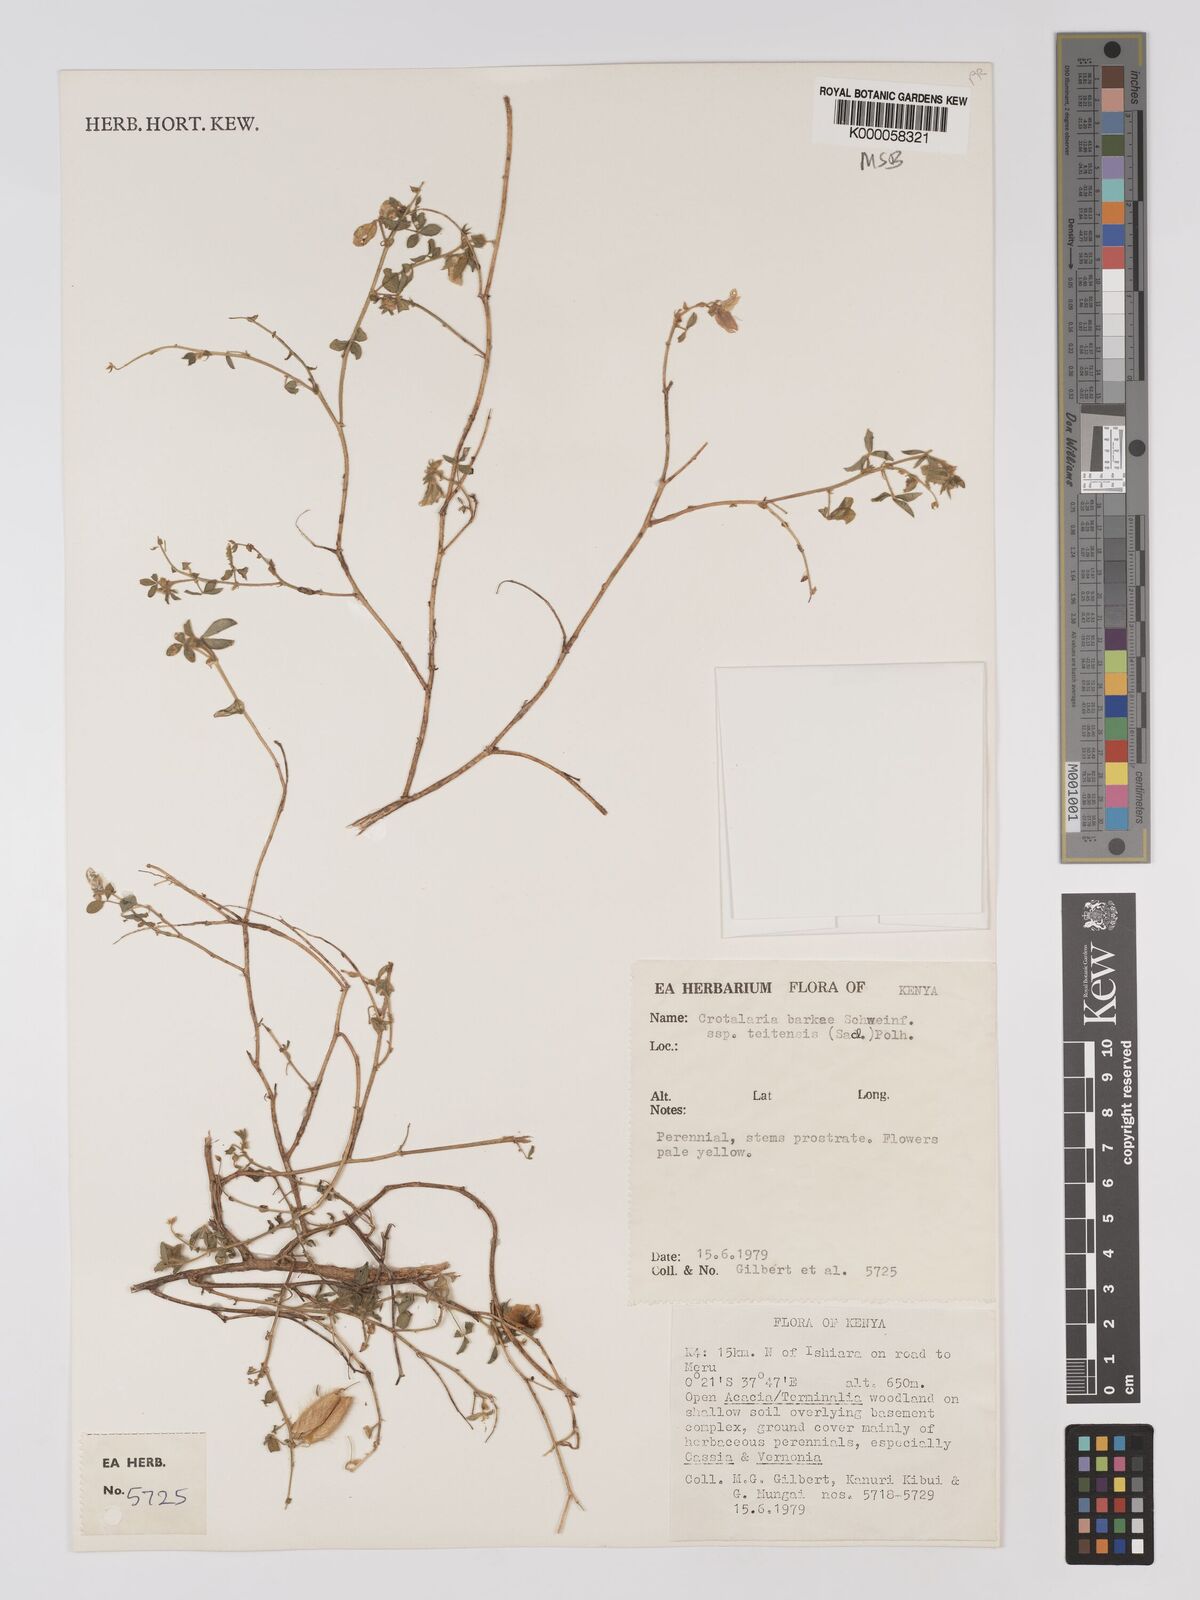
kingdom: Plantae
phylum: Tracheophyta
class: Magnoliopsida
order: Fabales
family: Fabaceae
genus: Crotalaria
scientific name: Crotalaria barkae
